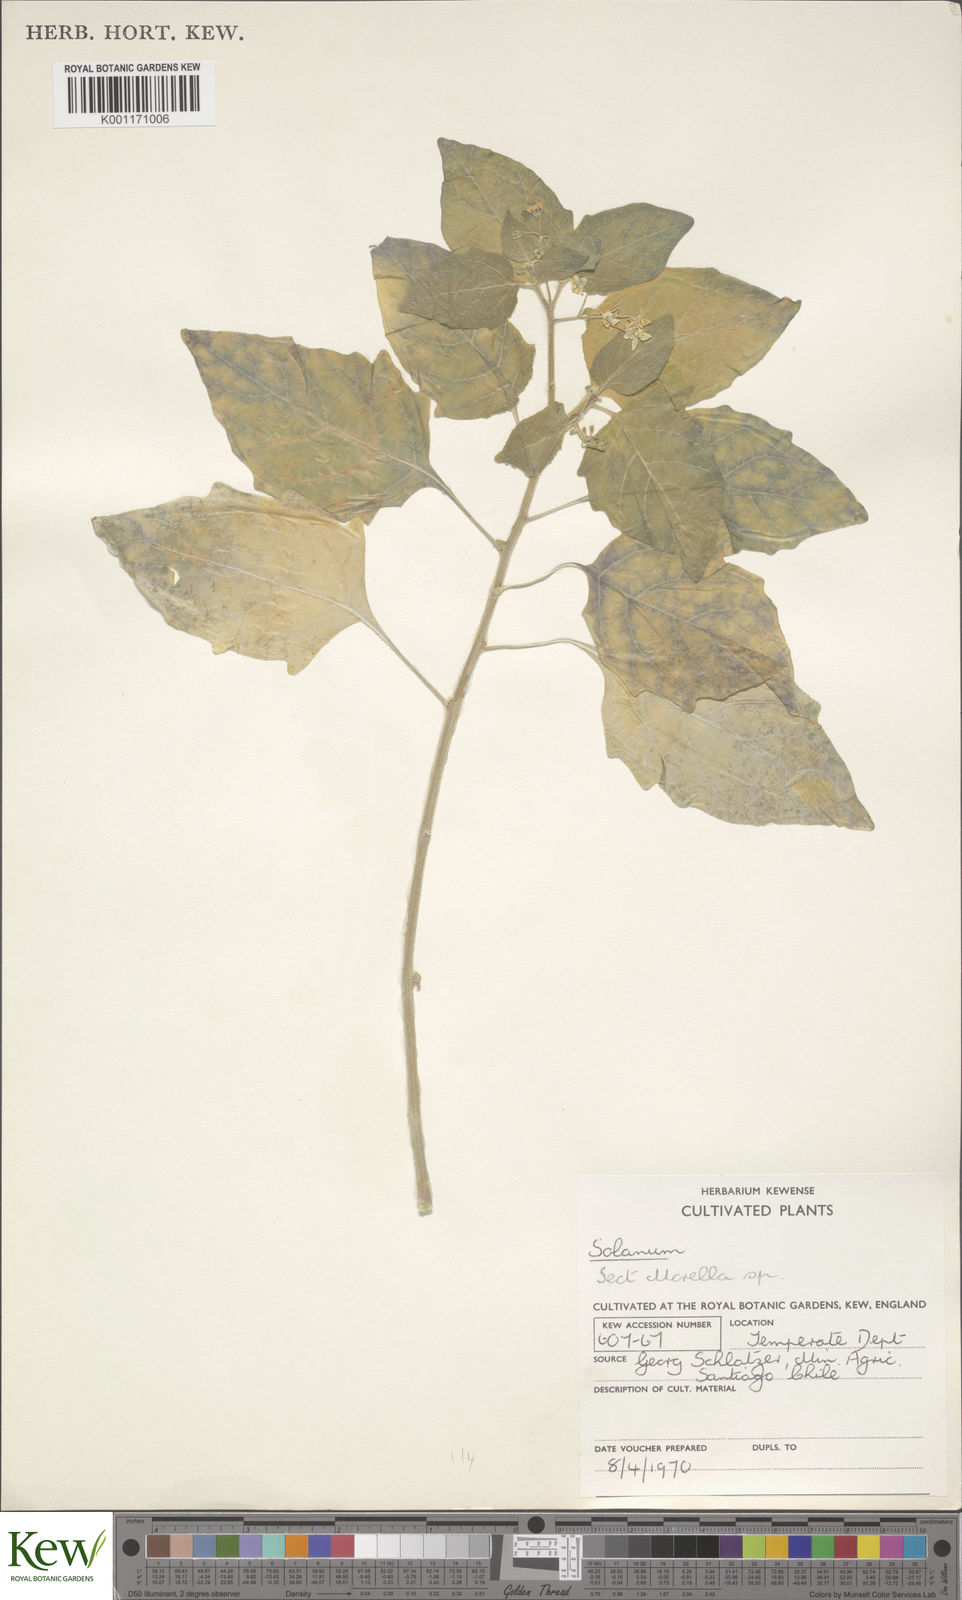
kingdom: Plantae
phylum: Tracheophyta
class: Magnoliopsida
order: Solanales
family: Solanaceae
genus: Solanum
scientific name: Solanum
